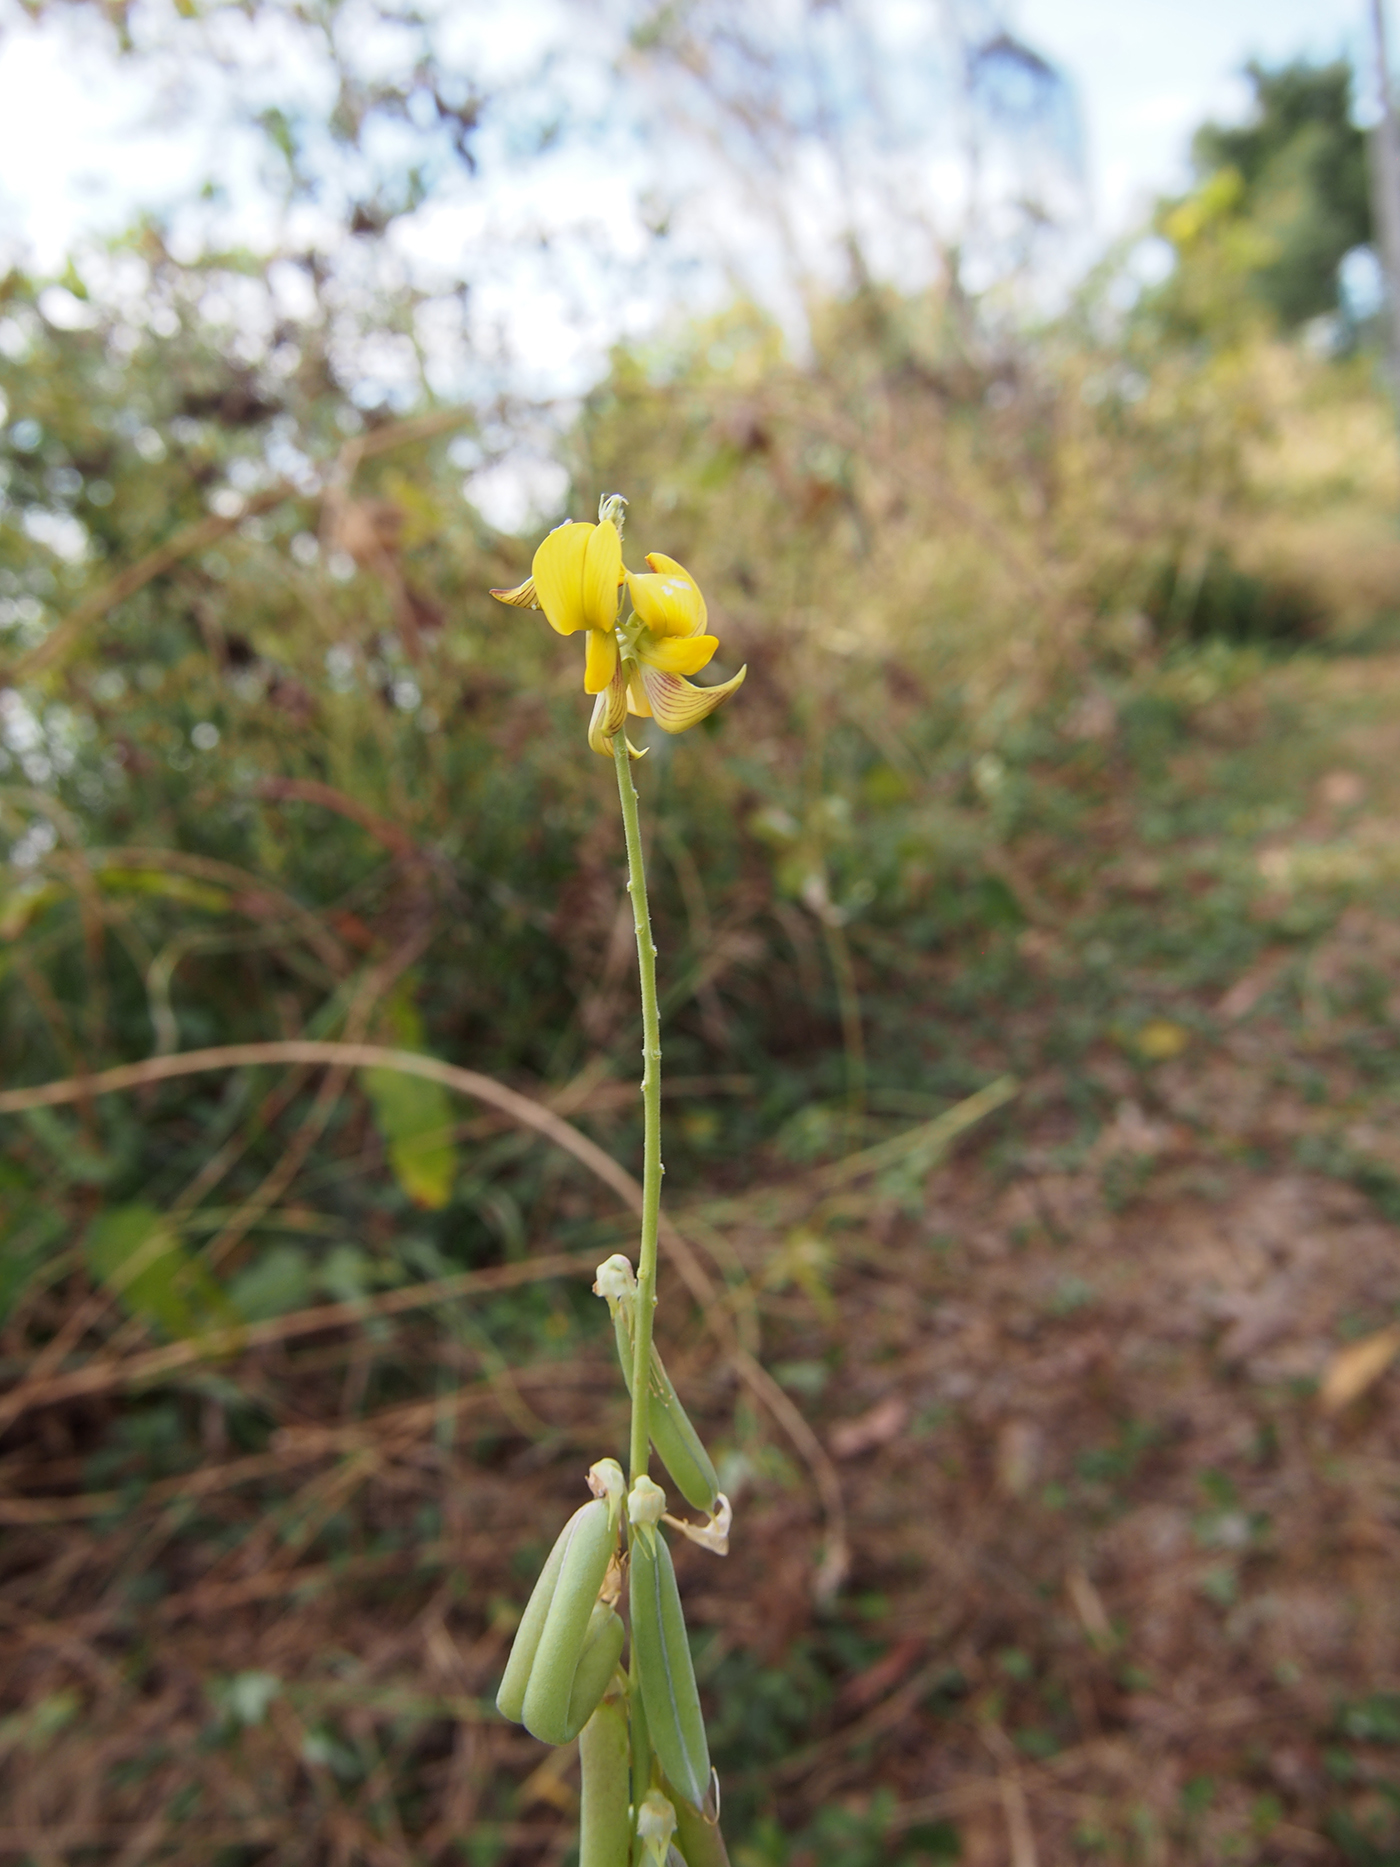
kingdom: Plantae
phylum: Tracheophyta
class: Magnoliopsida
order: Fabales
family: Fabaceae
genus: Crotalaria
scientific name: Crotalaria pallida
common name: Smooth rattlebox
